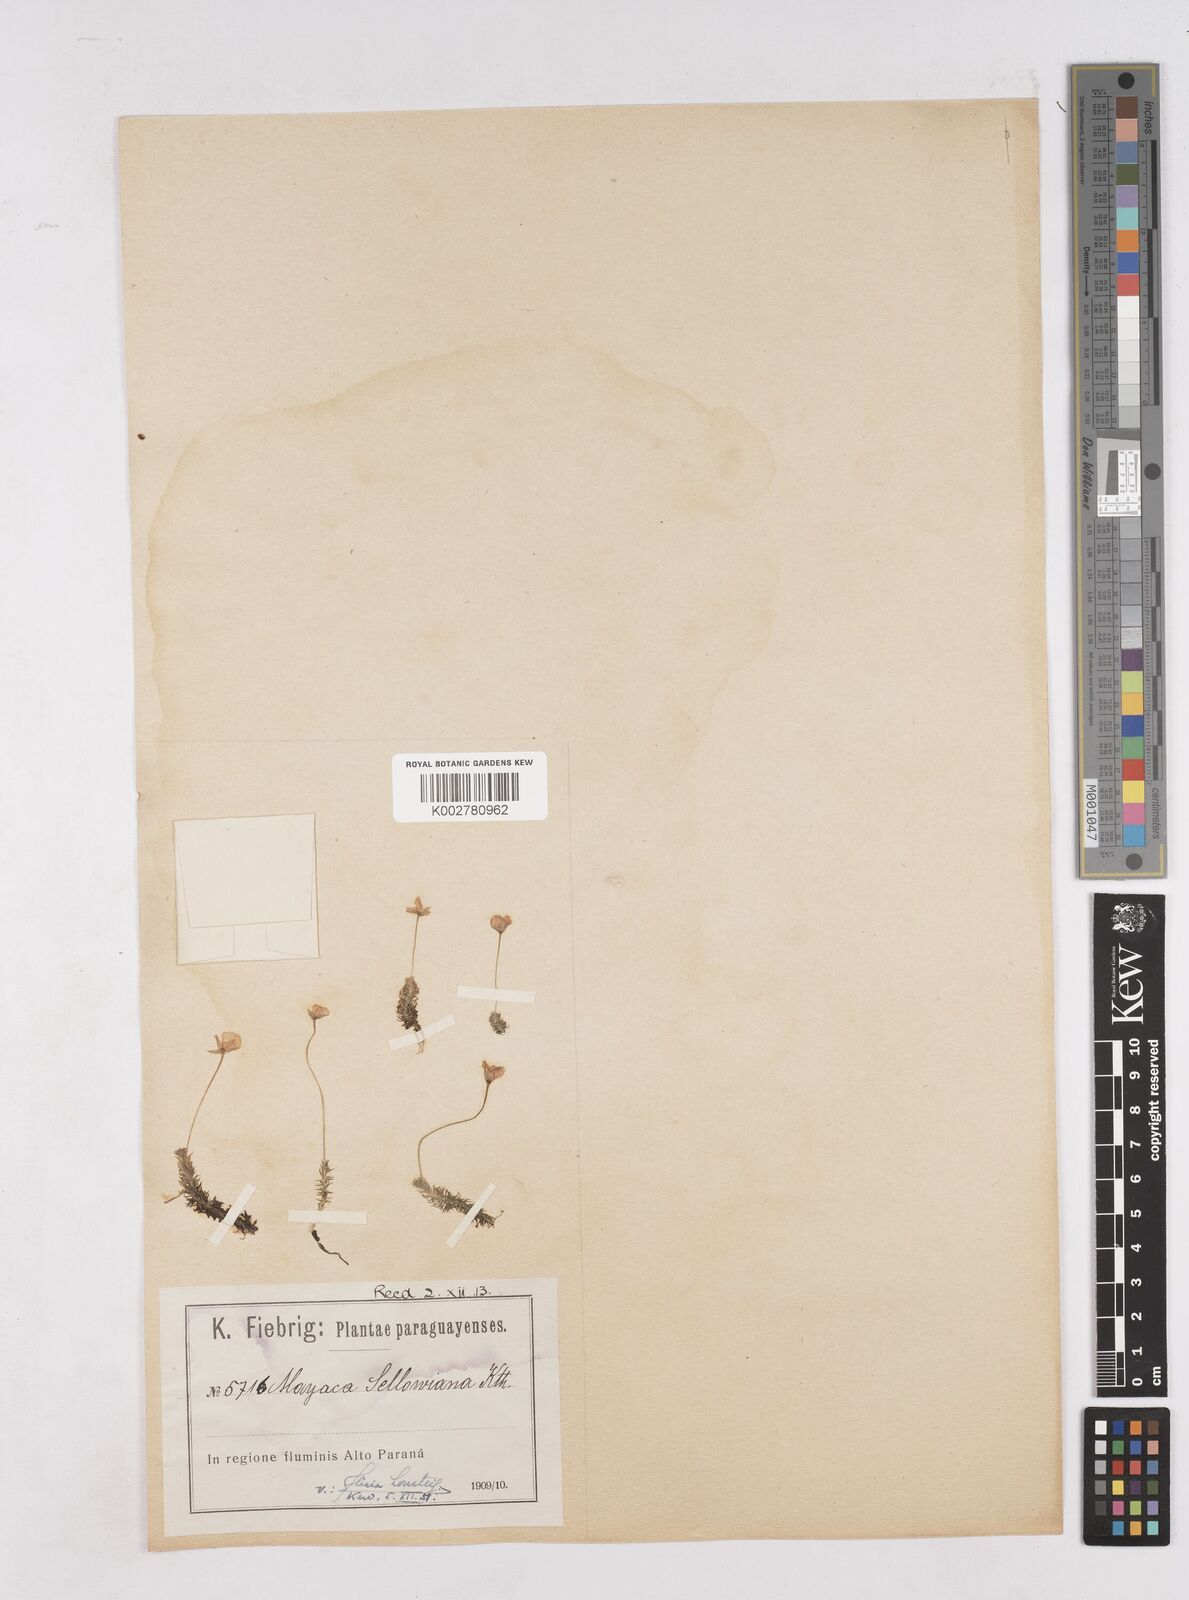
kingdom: Plantae
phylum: Tracheophyta
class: Liliopsida
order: Poales
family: Mayacaceae
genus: Mayaca
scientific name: Mayaca sellowiana
